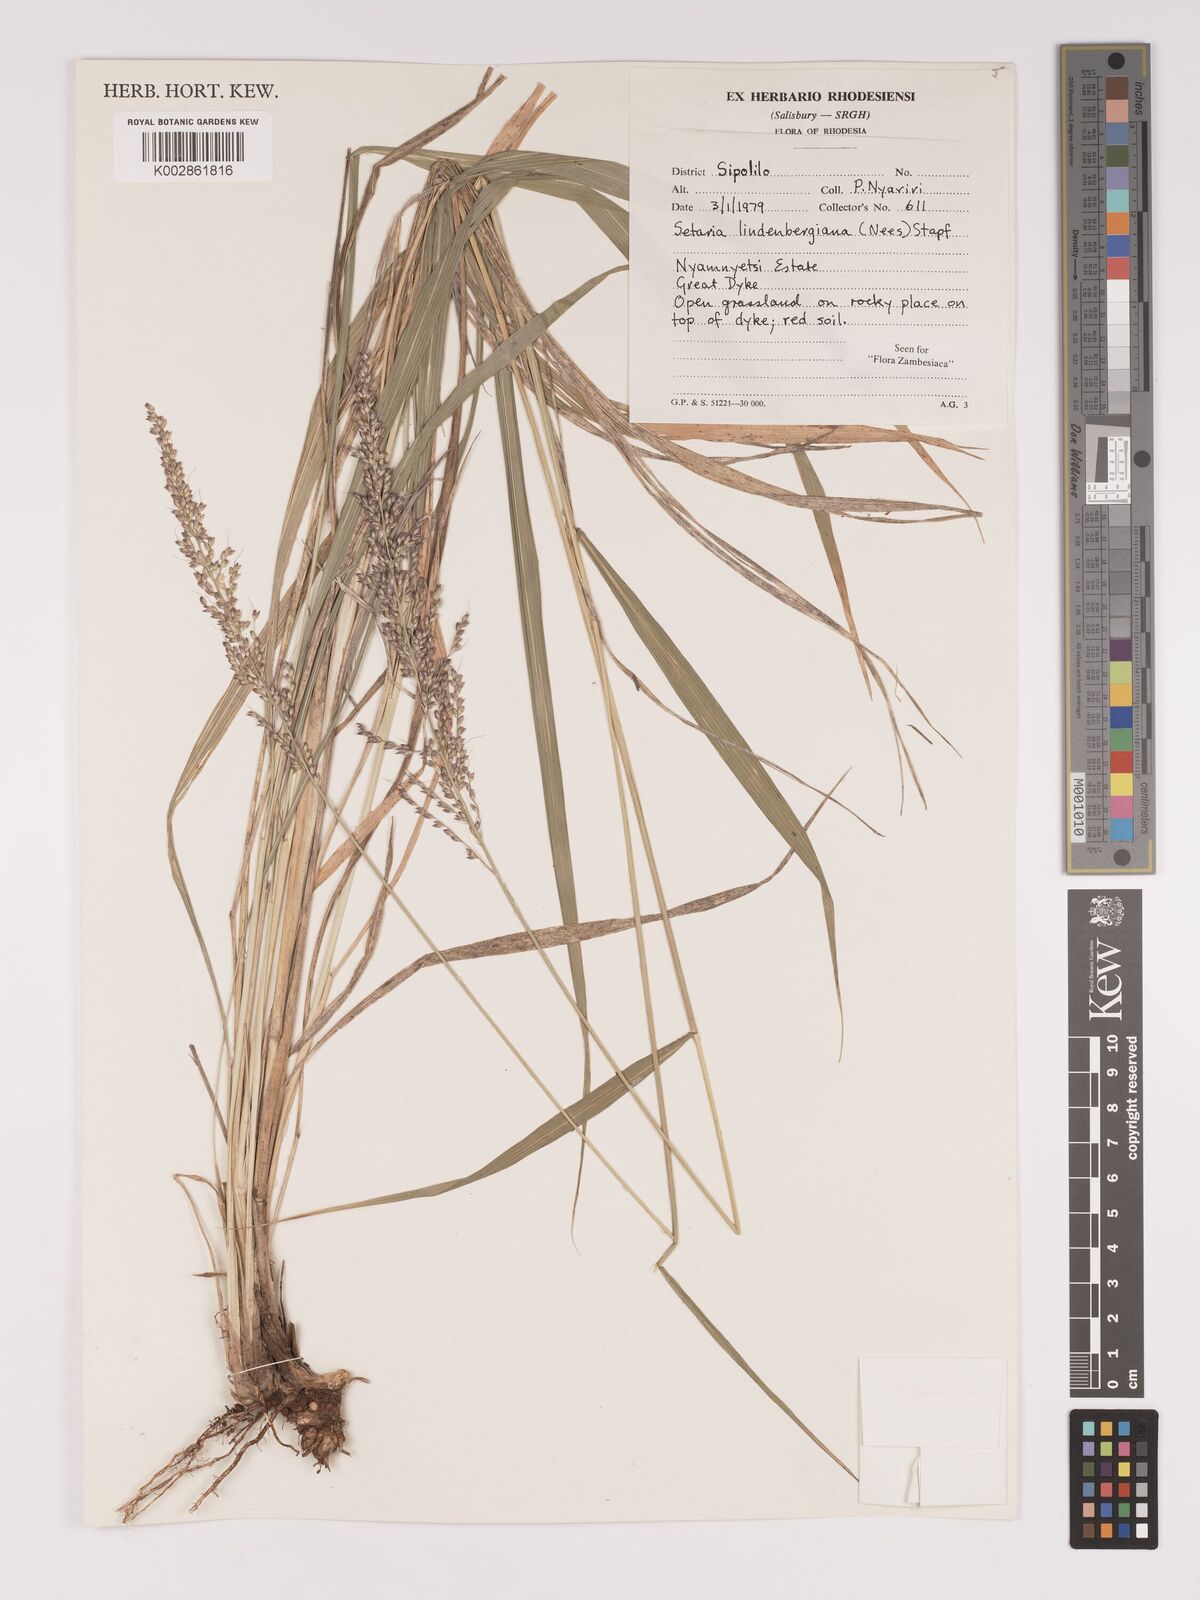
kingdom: Plantae
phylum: Tracheophyta
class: Liliopsida
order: Poales
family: Poaceae
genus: Setaria
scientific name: Setaria lindenbergiana
